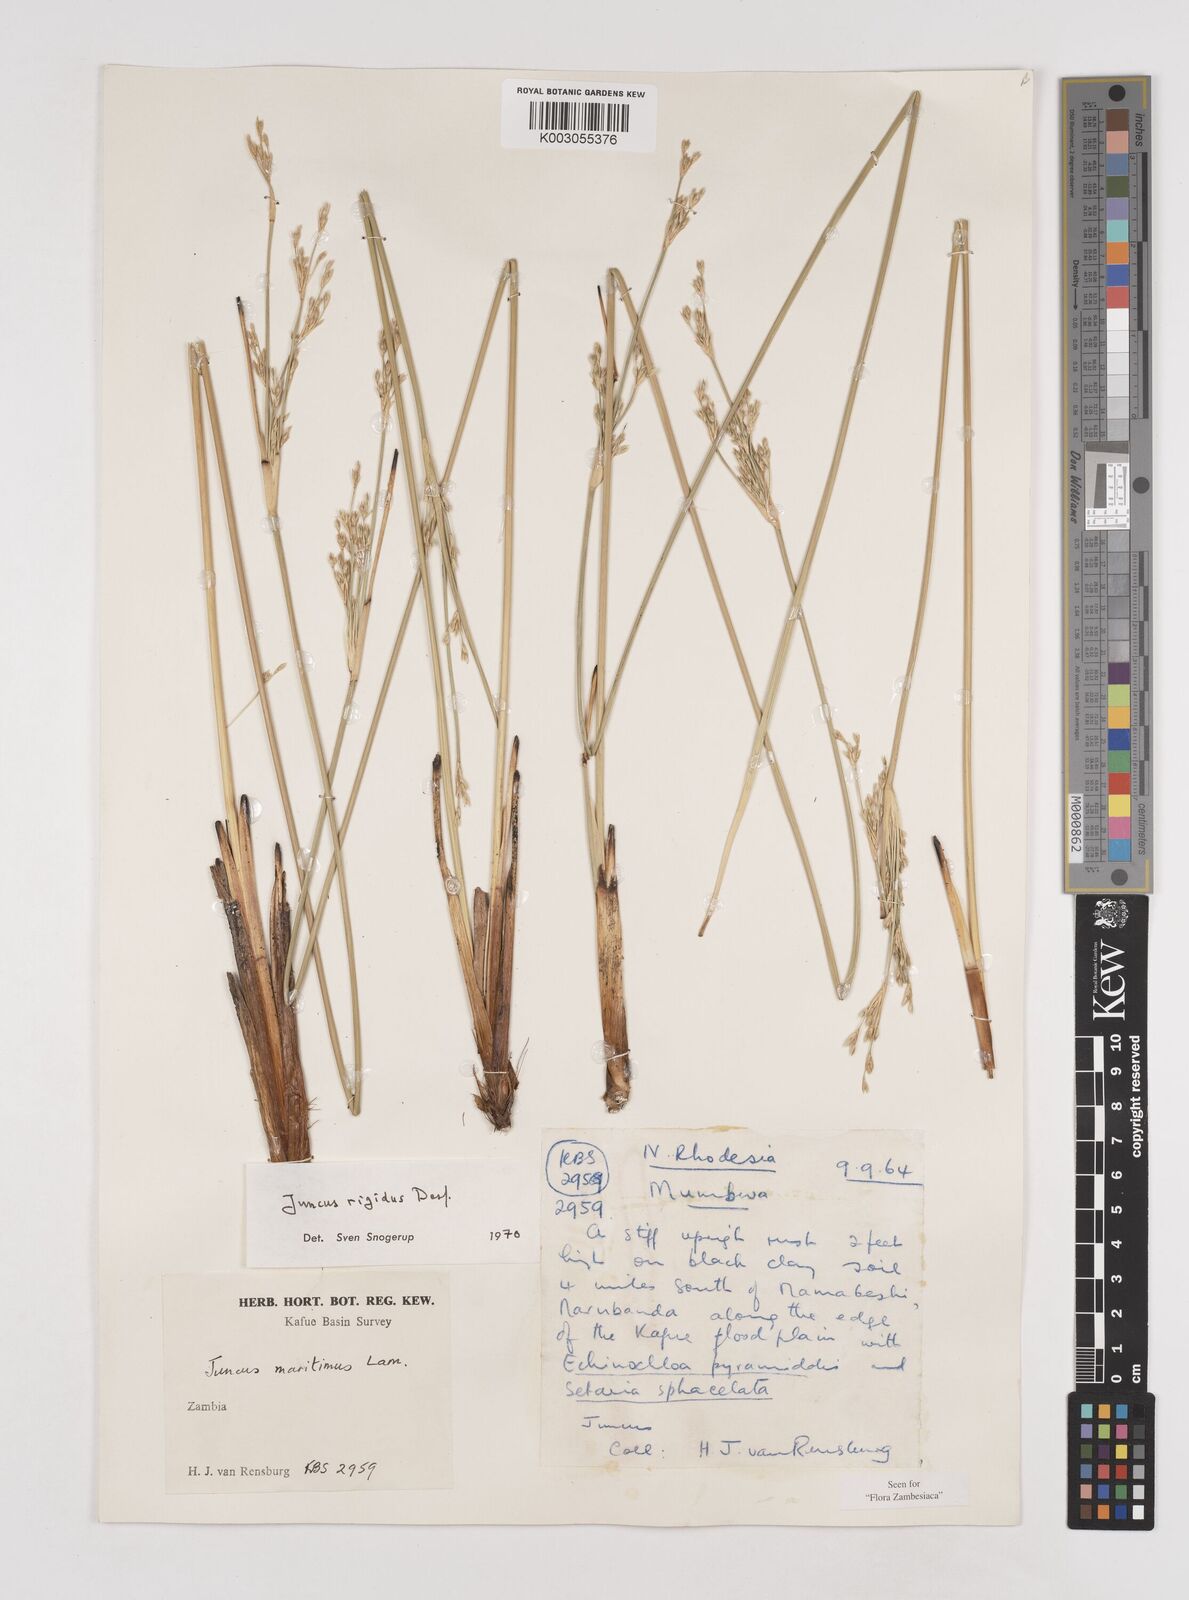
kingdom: Plantae
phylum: Tracheophyta
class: Liliopsida
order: Poales
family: Juncaceae
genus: Juncus
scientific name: Juncus rigidus
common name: Hard sea rush
